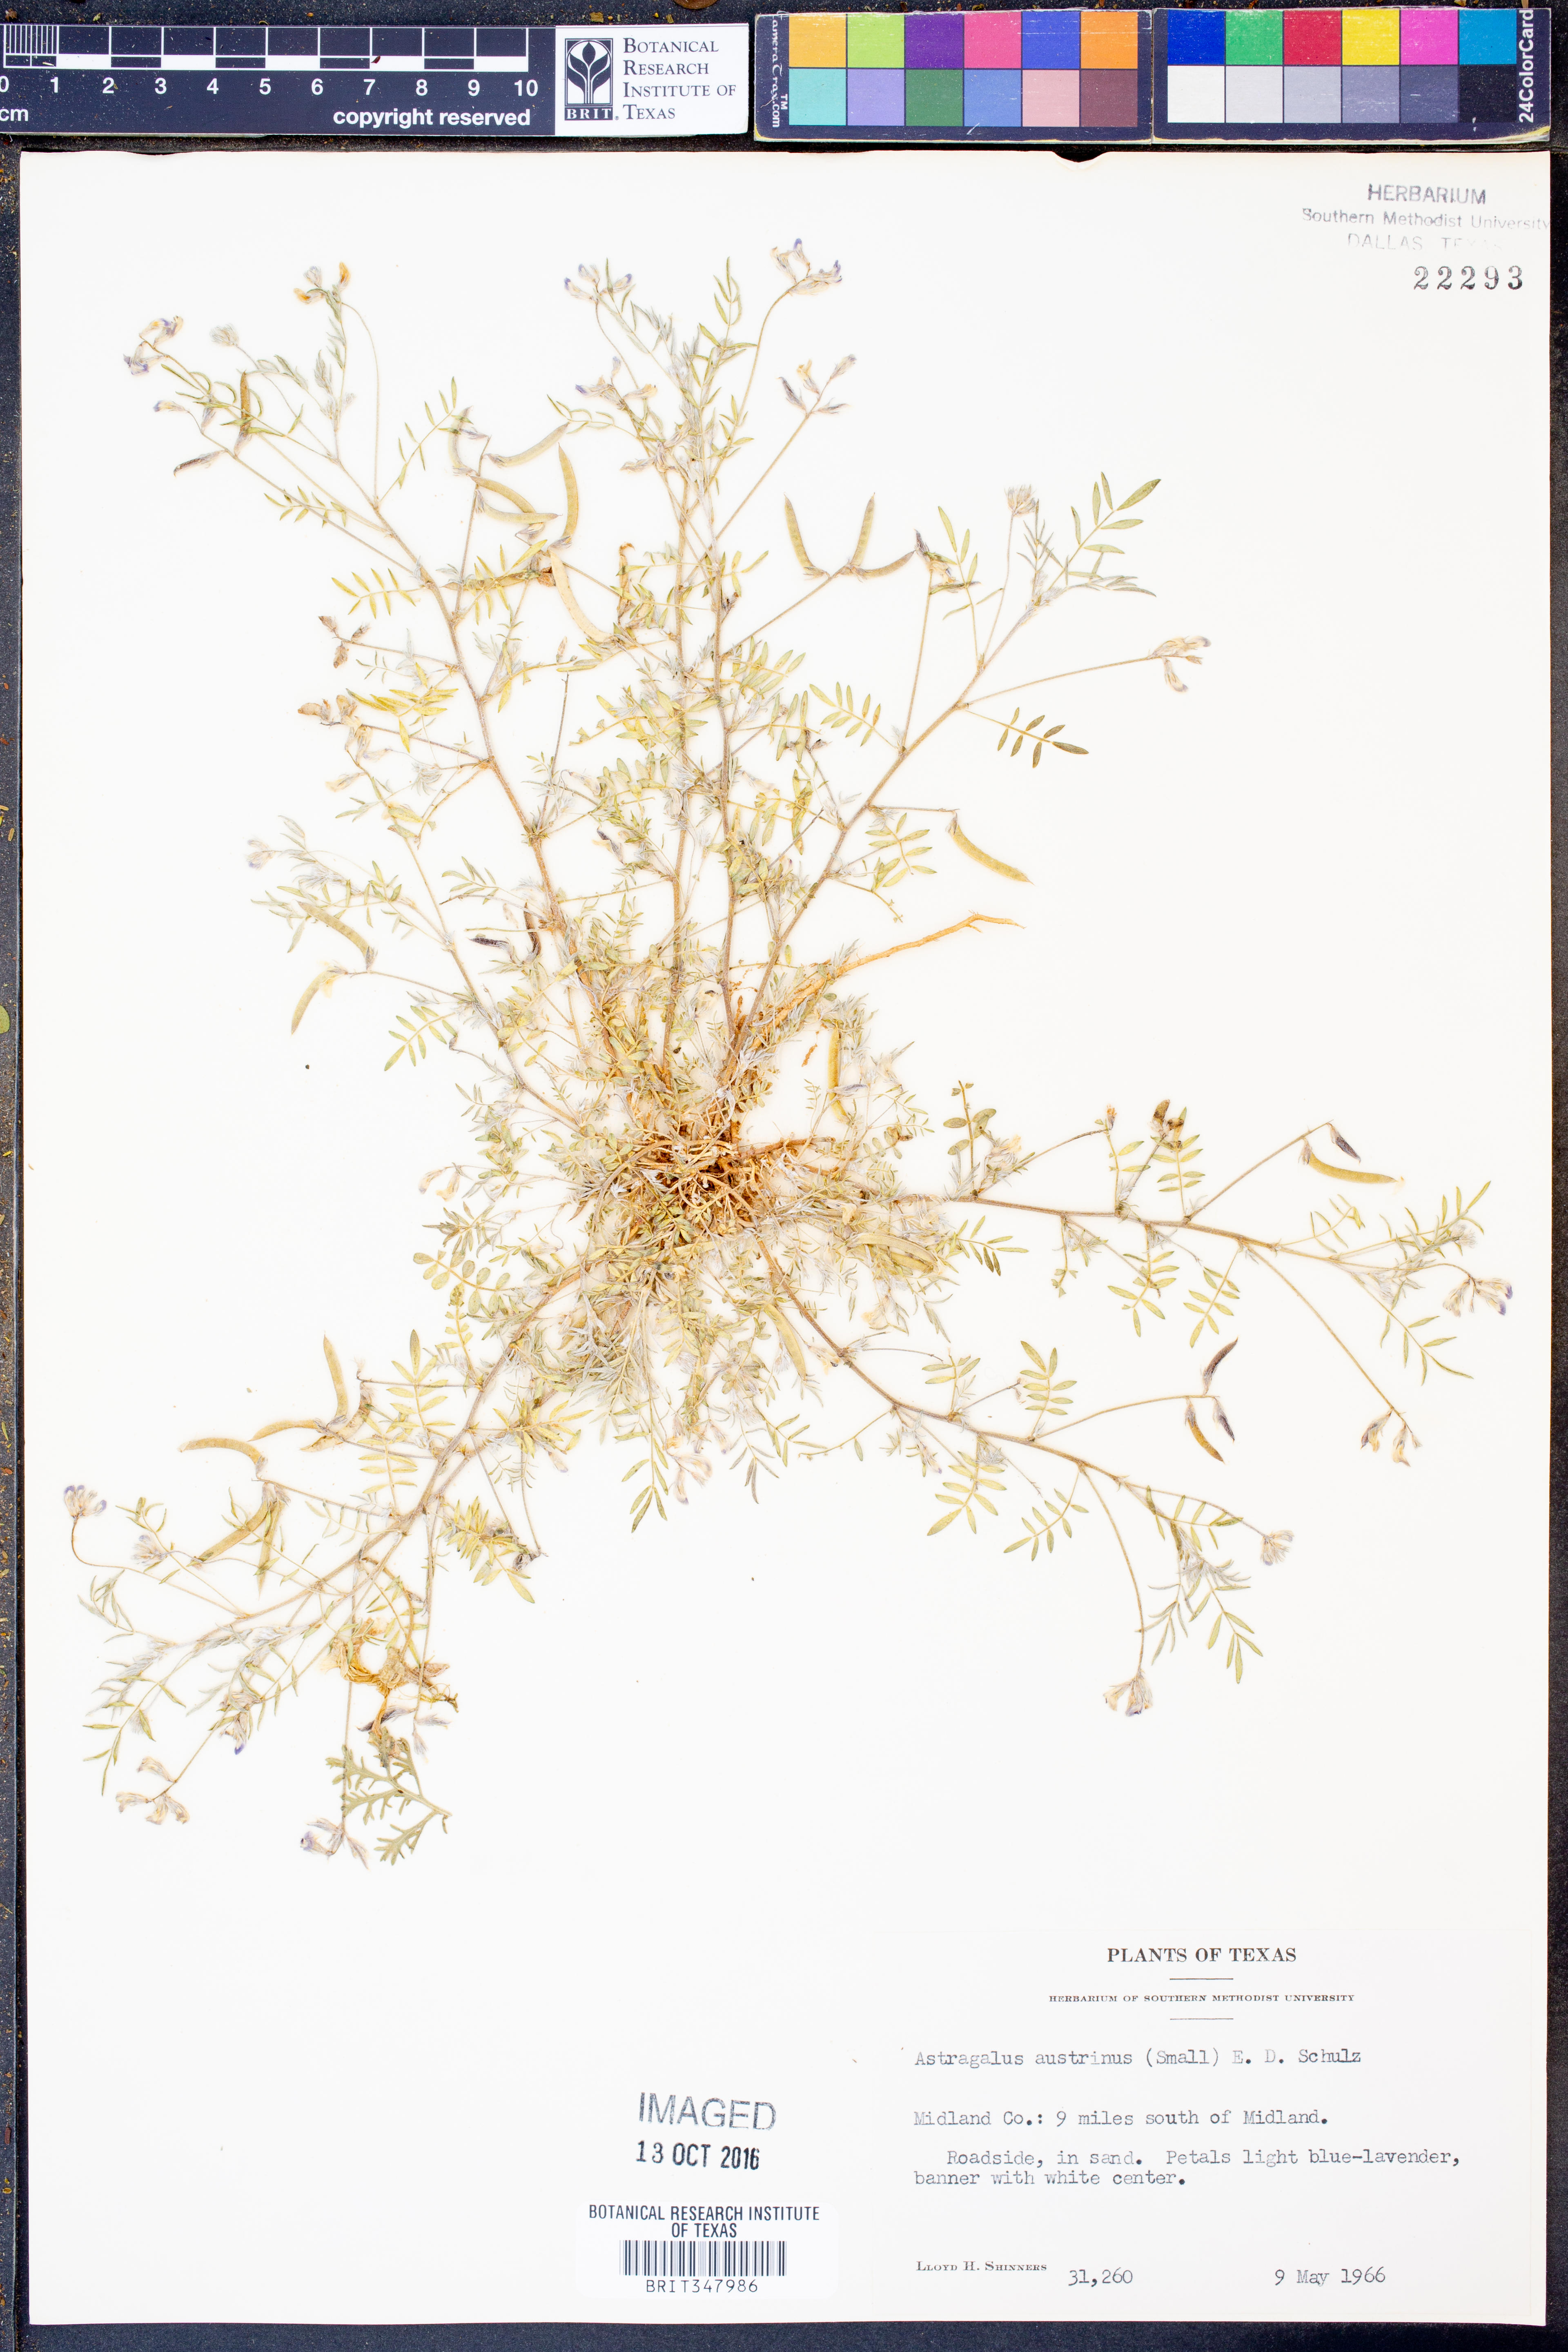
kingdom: Plantae
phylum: Tracheophyta
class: Magnoliopsida
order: Fabales
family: Fabaceae
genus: Astragalus
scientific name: Astragalus nuttallianus
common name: Smallflowered milkvetch
